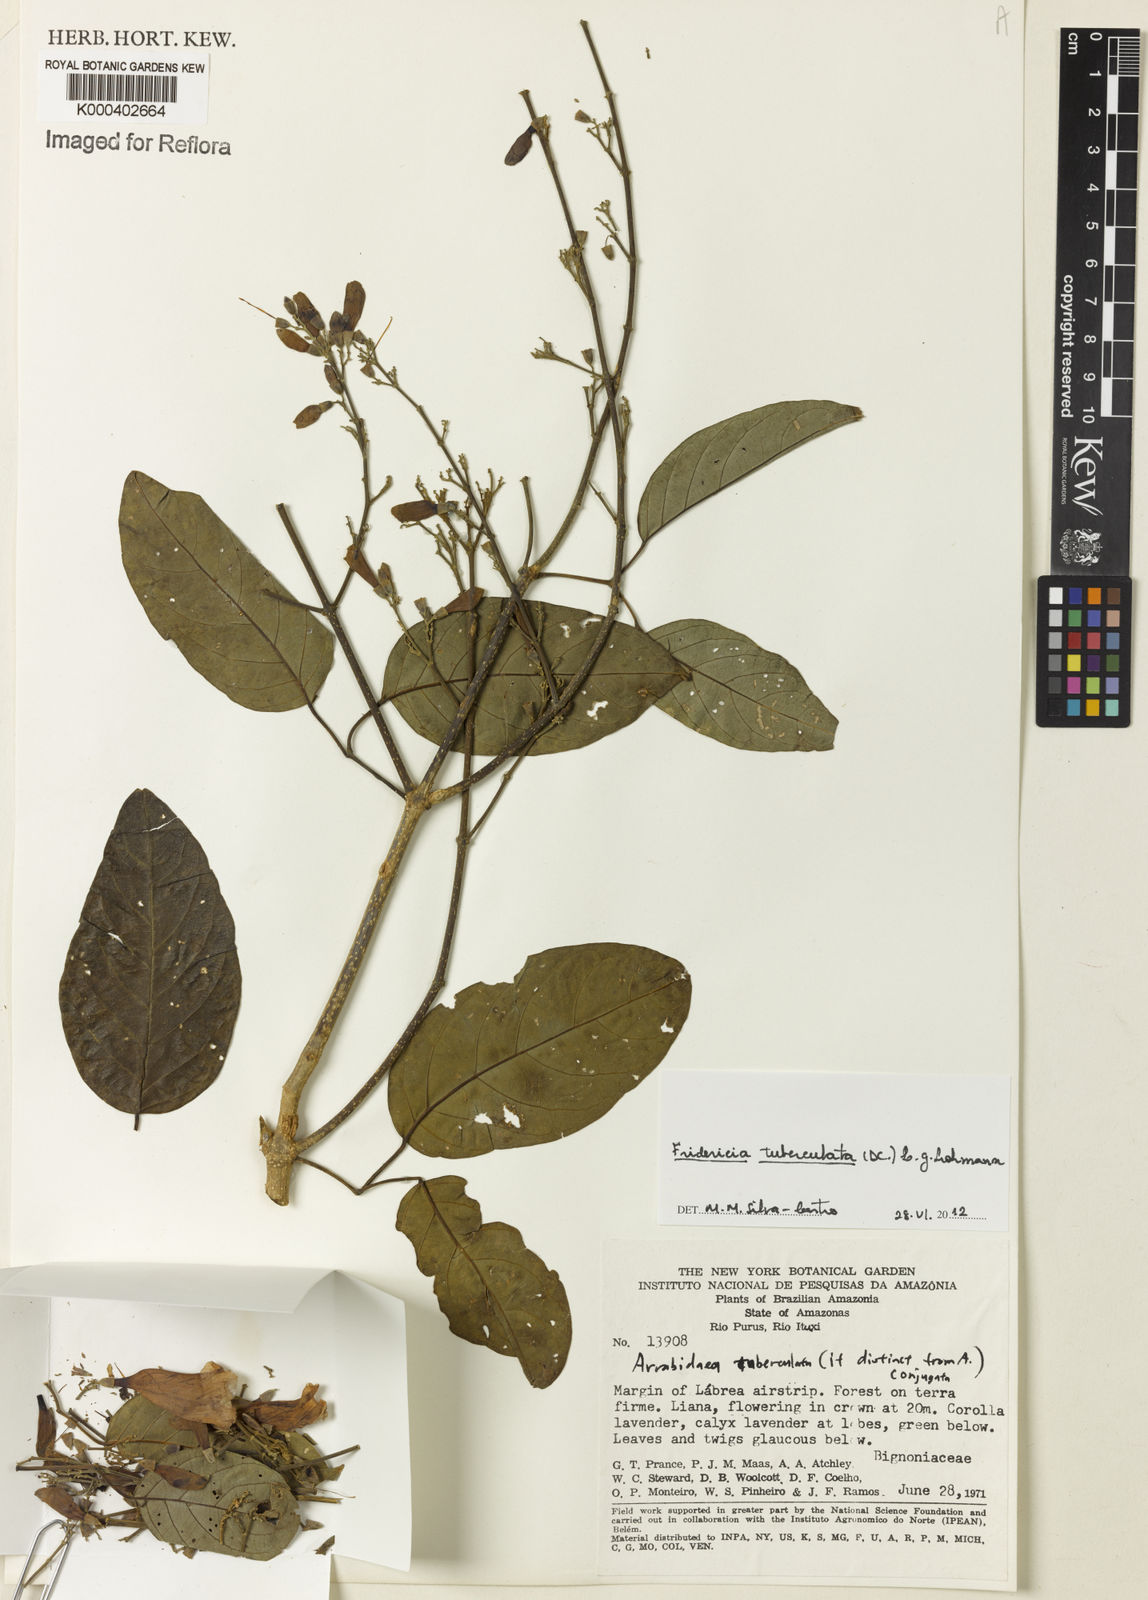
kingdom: Plantae
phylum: Tracheophyta
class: Magnoliopsida
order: Lamiales
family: Bignoniaceae
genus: Fridericia
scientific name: Fridericia tuberculata
